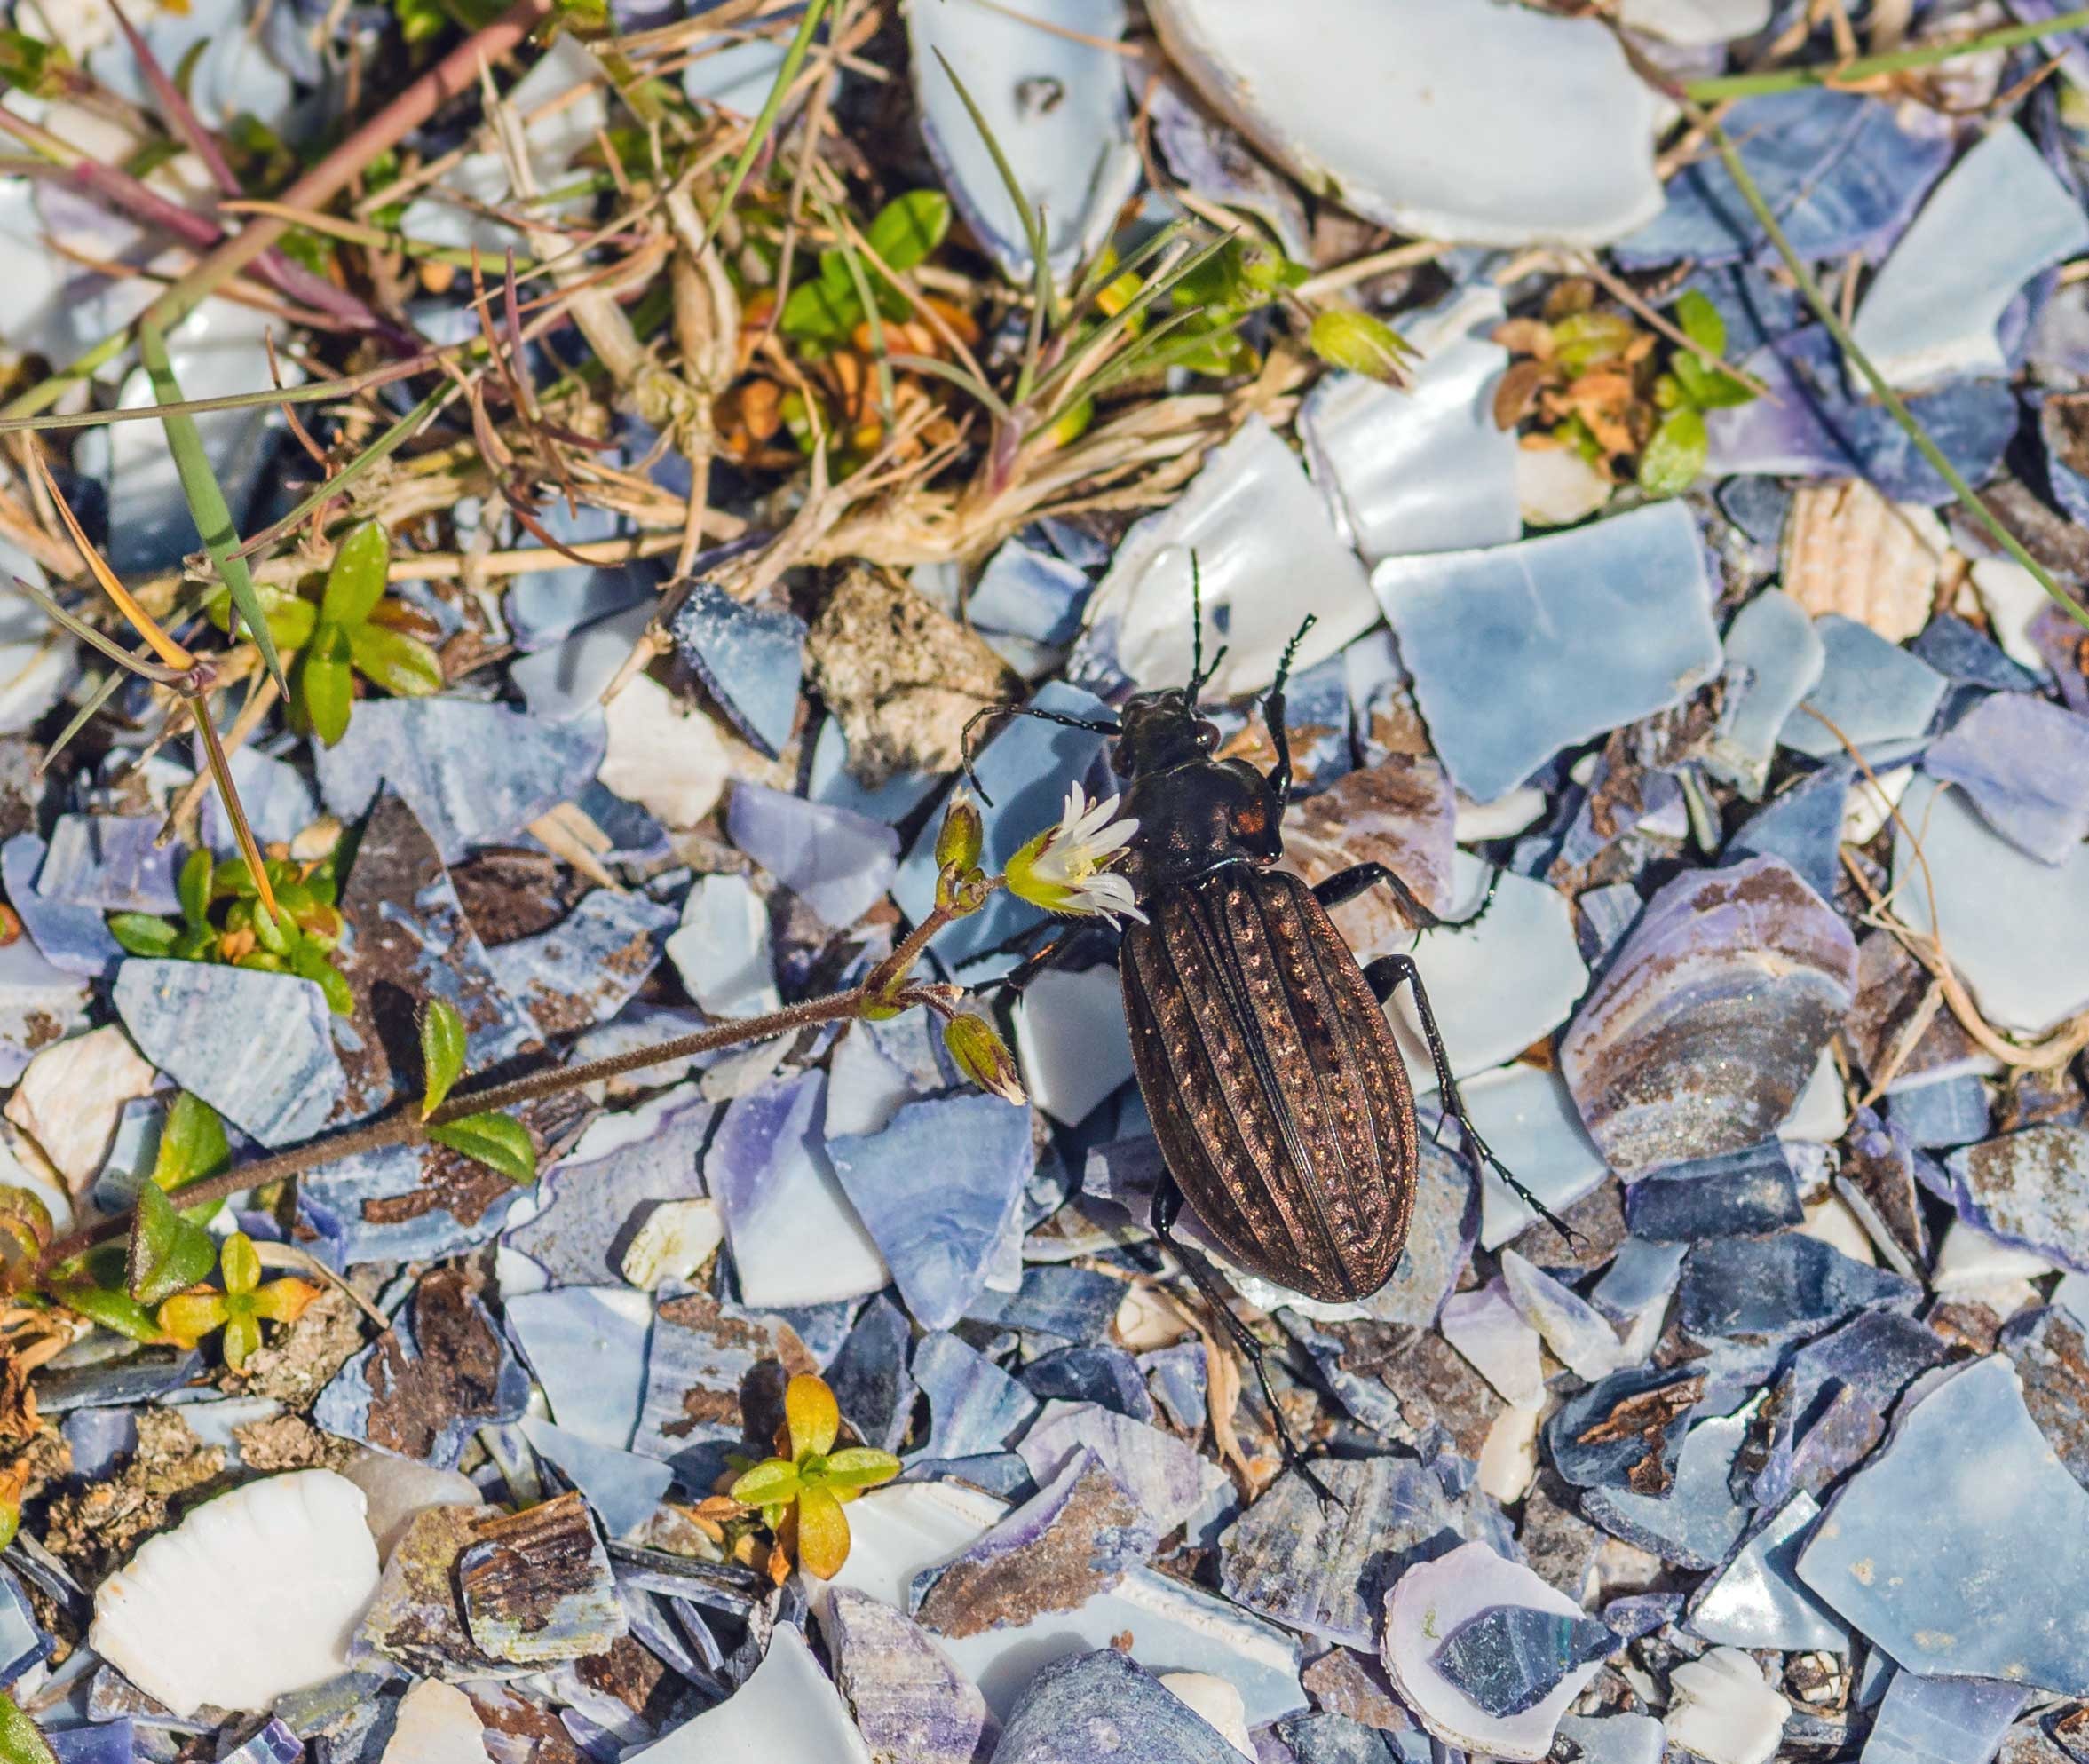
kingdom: Animalia
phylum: Arthropoda
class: Insecta
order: Coleoptera
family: Carabidae
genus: Carabus
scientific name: Carabus clatratus
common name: Dyndløber
